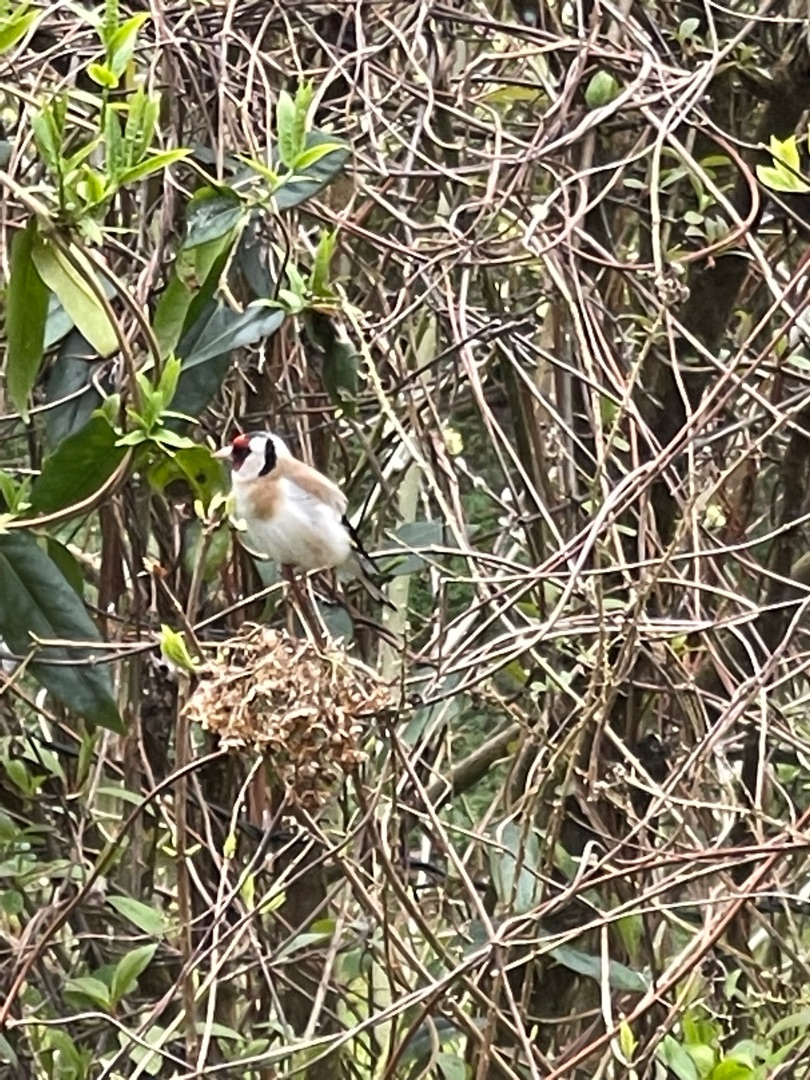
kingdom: Animalia
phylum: Chordata
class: Aves
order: Passeriformes
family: Fringillidae
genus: Carduelis
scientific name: Carduelis carduelis
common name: Stillits
